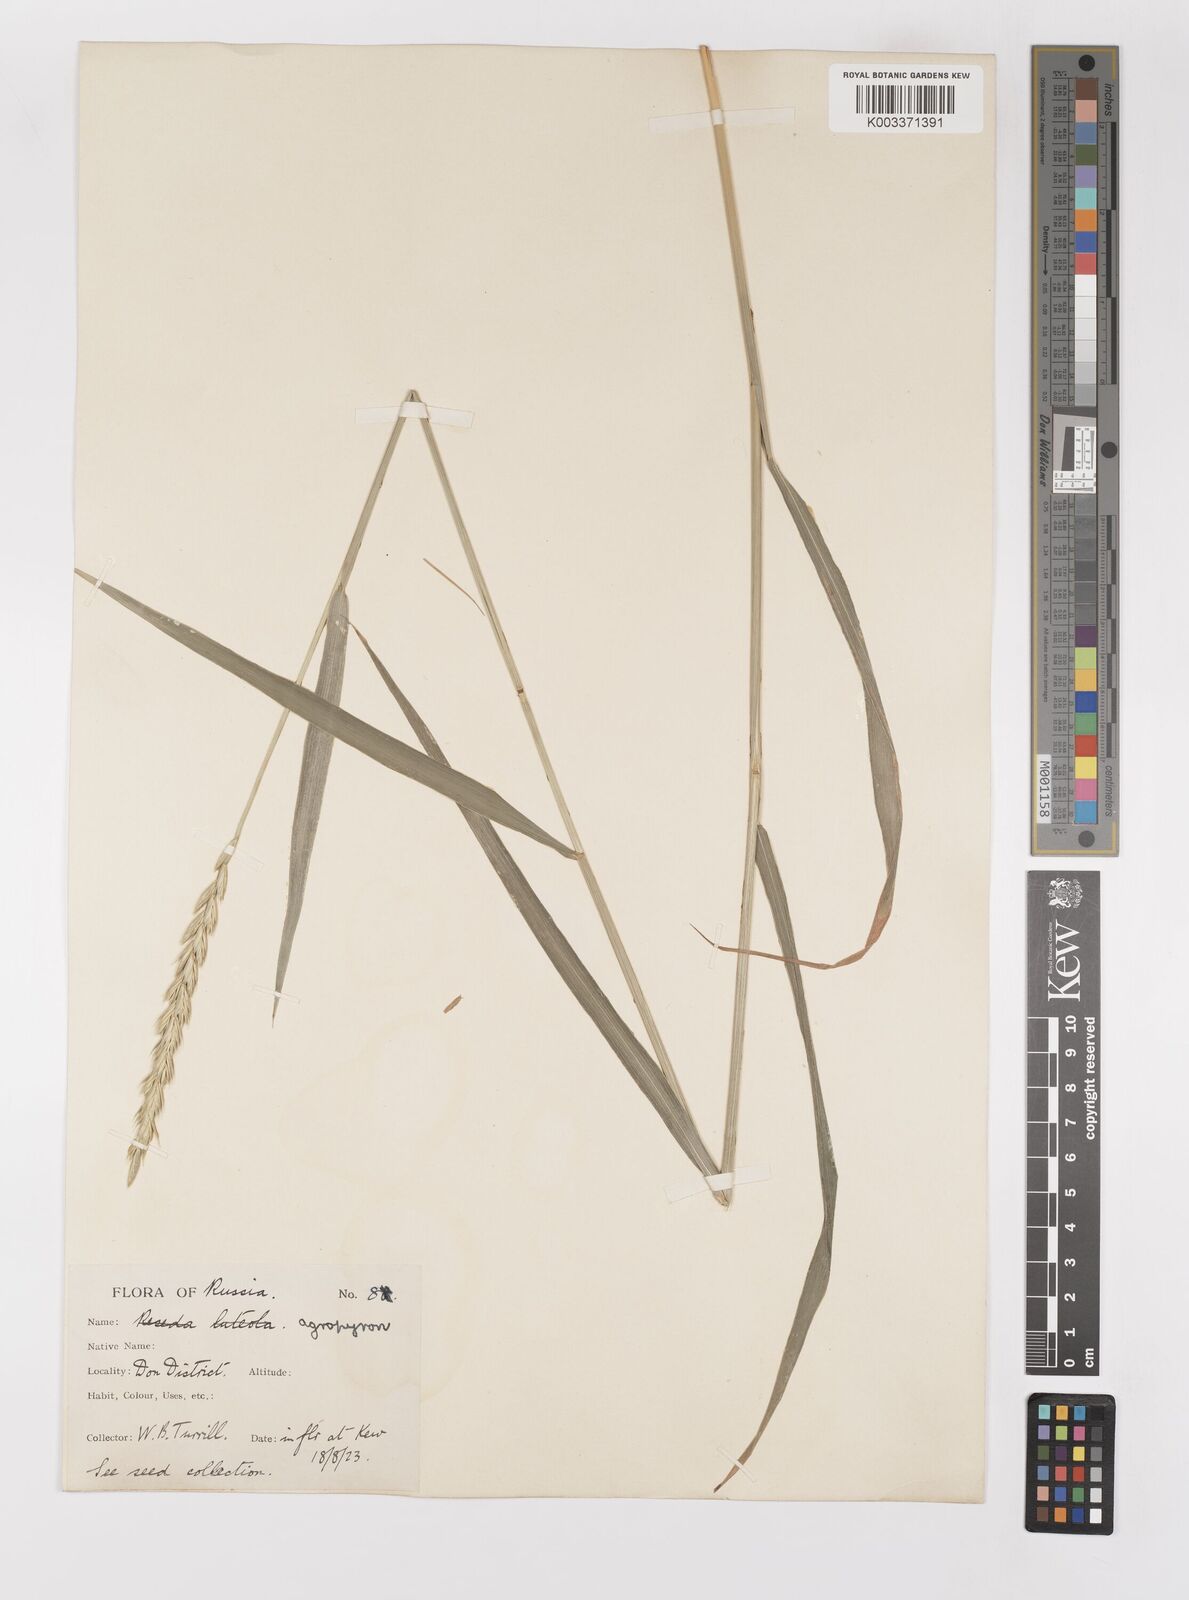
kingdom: Plantae
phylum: Tracheophyta
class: Liliopsida
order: Poales
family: Poaceae
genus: Elymus
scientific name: Elymus repens
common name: Quackgrass
